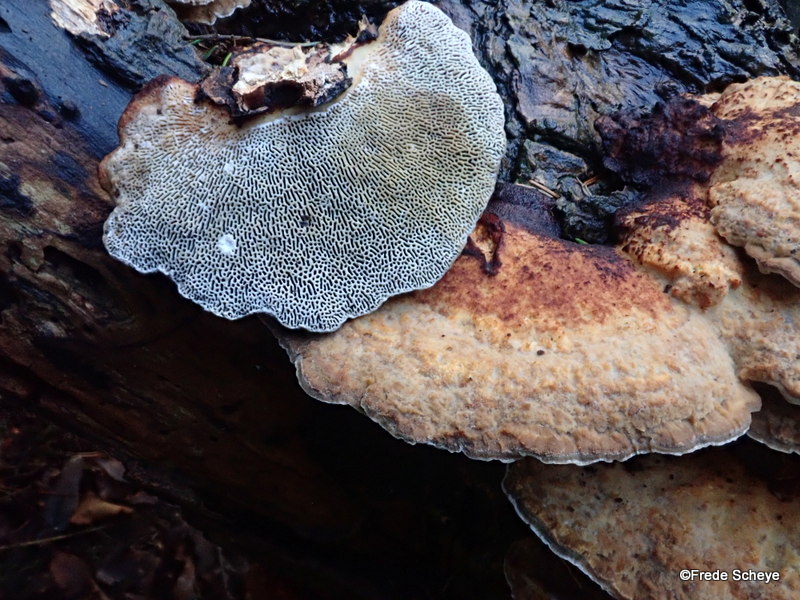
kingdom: Fungi
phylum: Basidiomycota
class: Agaricomycetes
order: Polyporales
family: Polyporaceae
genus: Daedaleopsis
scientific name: Daedaleopsis confragosa
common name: rødmende læderporesvamp
